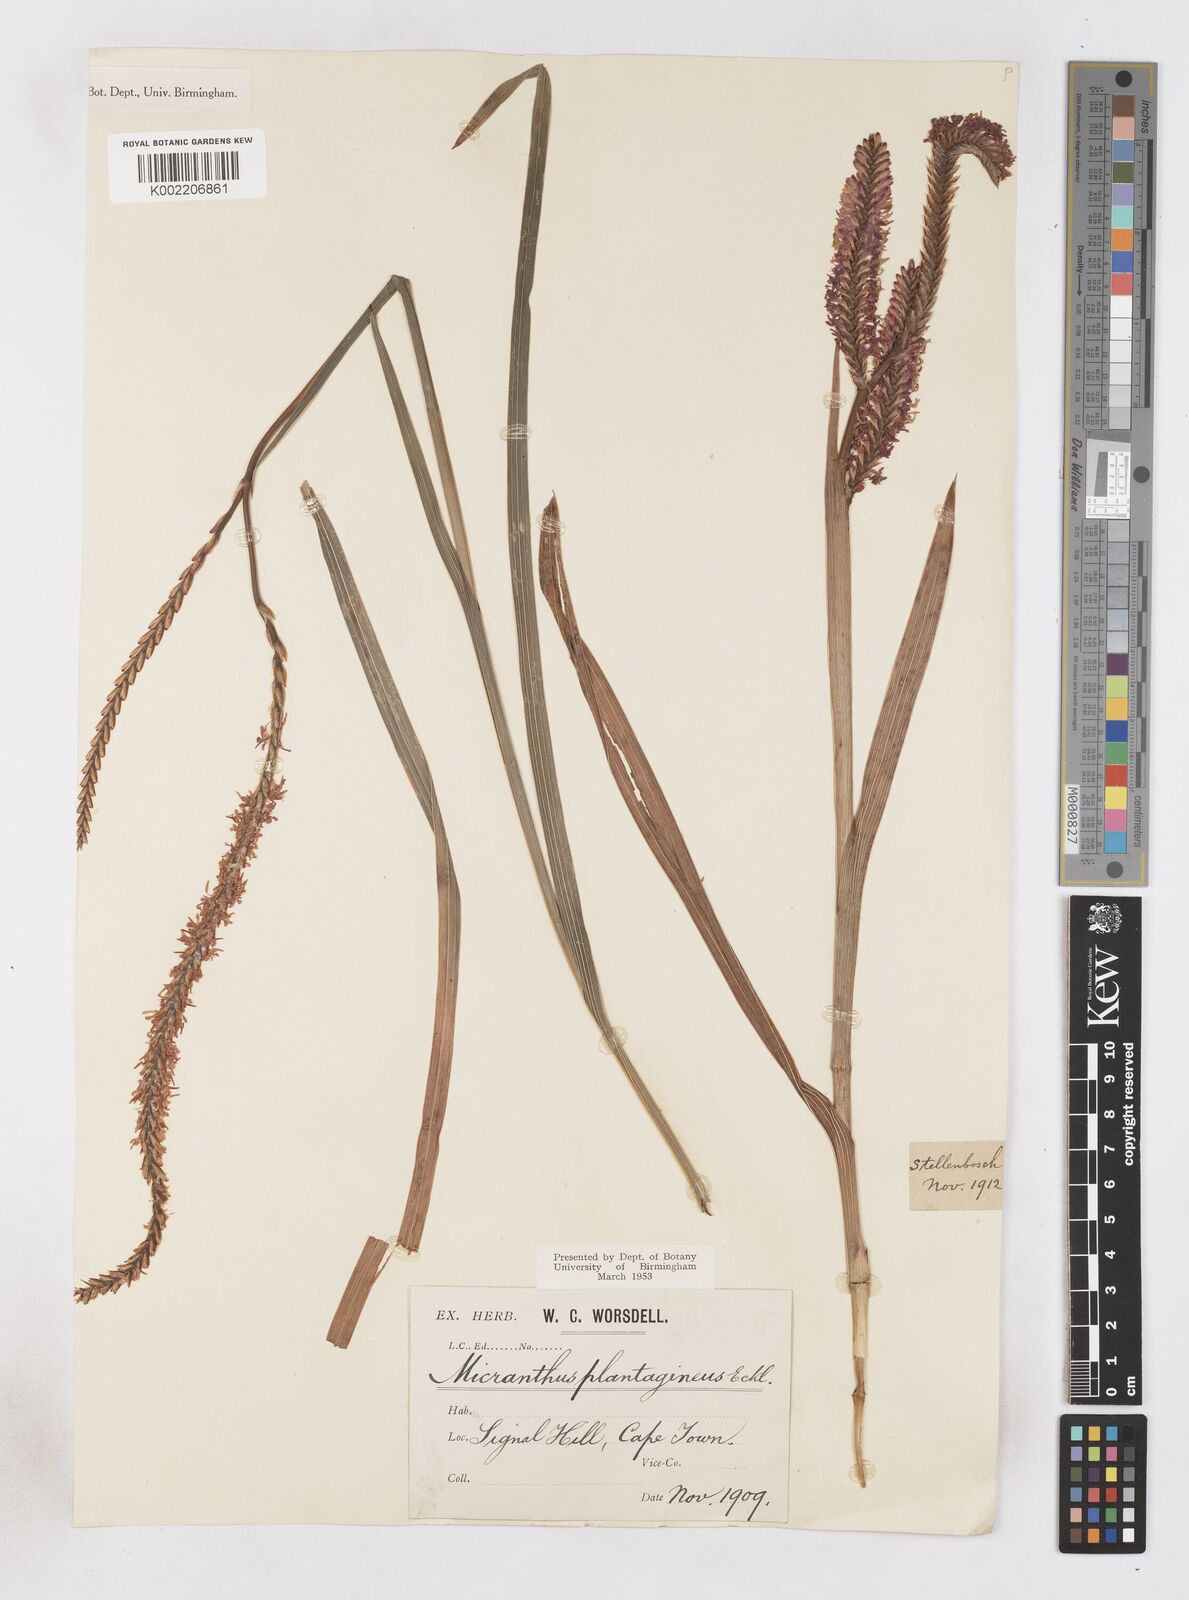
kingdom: Plantae
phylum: Tracheophyta
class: Liliopsida
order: Asparagales
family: Iridaceae
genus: Micranthus
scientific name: Micranthus plantagineus
